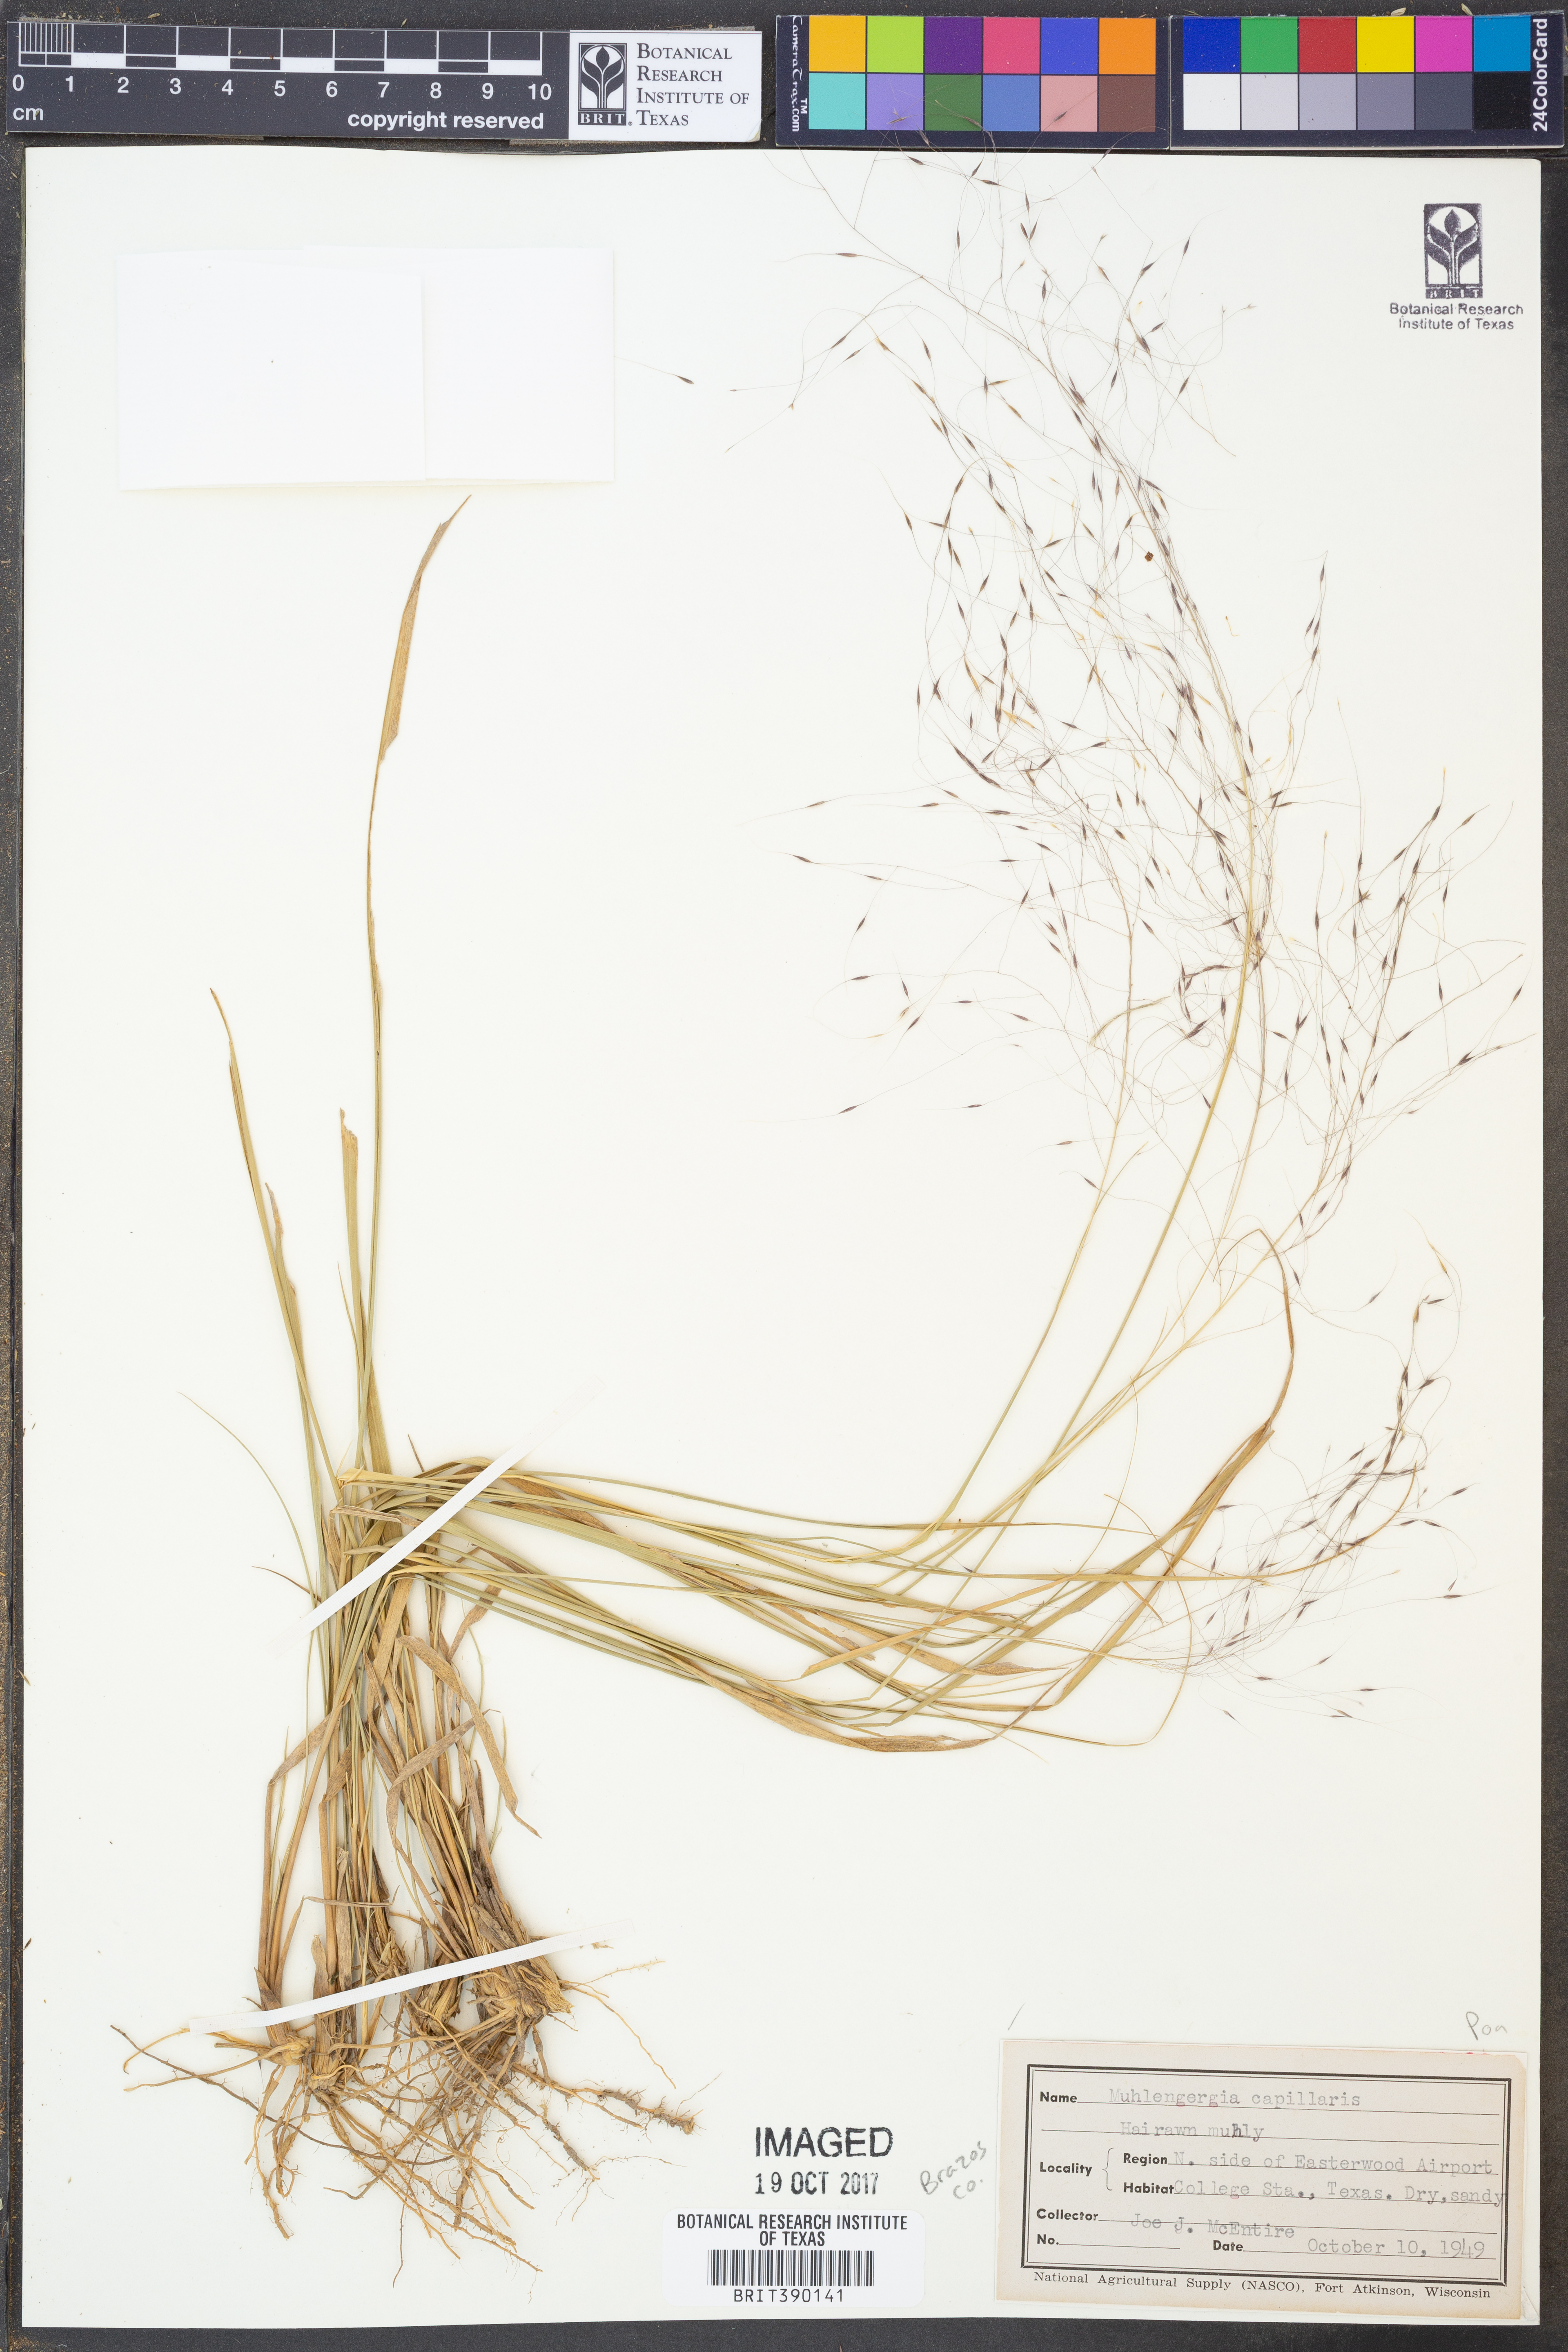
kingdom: Plantae
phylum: Tracheophyta
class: Liliopsida
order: Poales
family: Poaceae
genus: Muhlenbergia
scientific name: Muhlenbergia capillaris
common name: Purple grass
